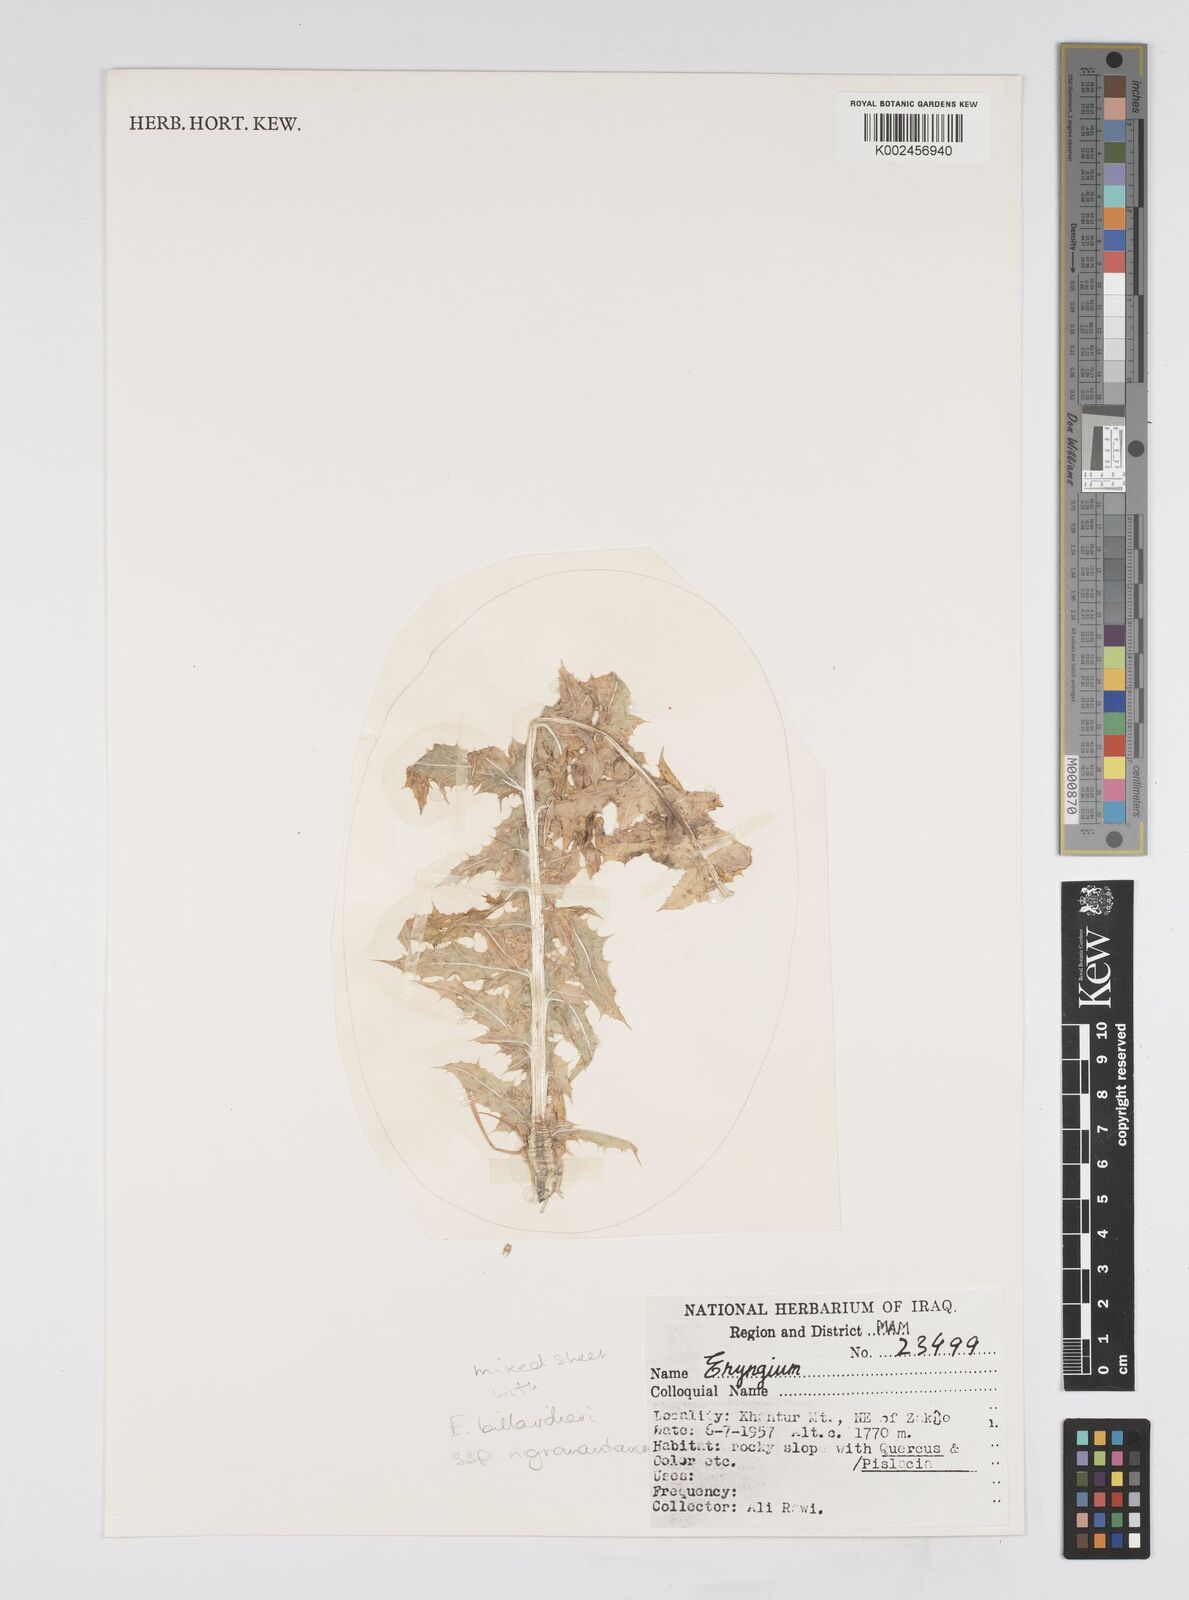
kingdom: Plantae
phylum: Tracheophyta
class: Magnoliopsida
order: Apiales
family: Apiaceae
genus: Eryngium
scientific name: Eryngium
